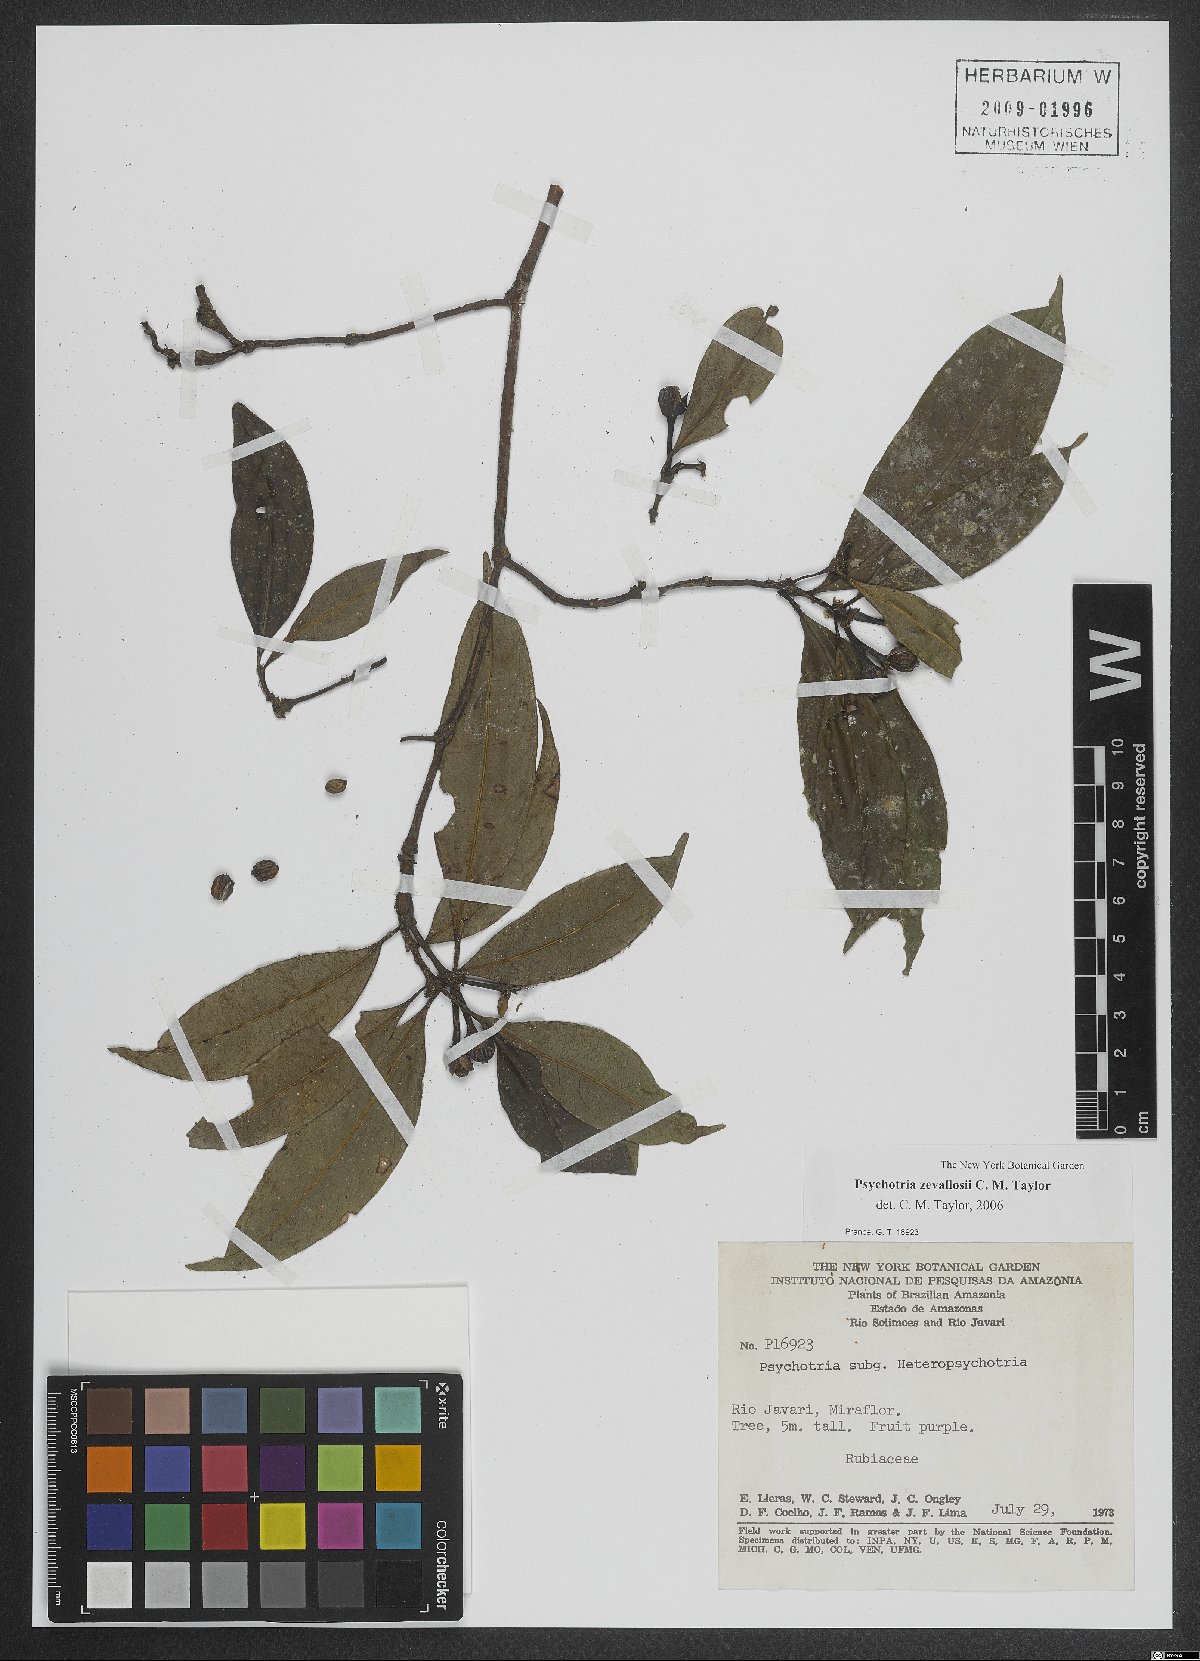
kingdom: Plantae
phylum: Tracheophyta
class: Magnoliopsida
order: Gentianales
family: Rubiaceae
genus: Palicourea
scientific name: Palicourea zevallosii
